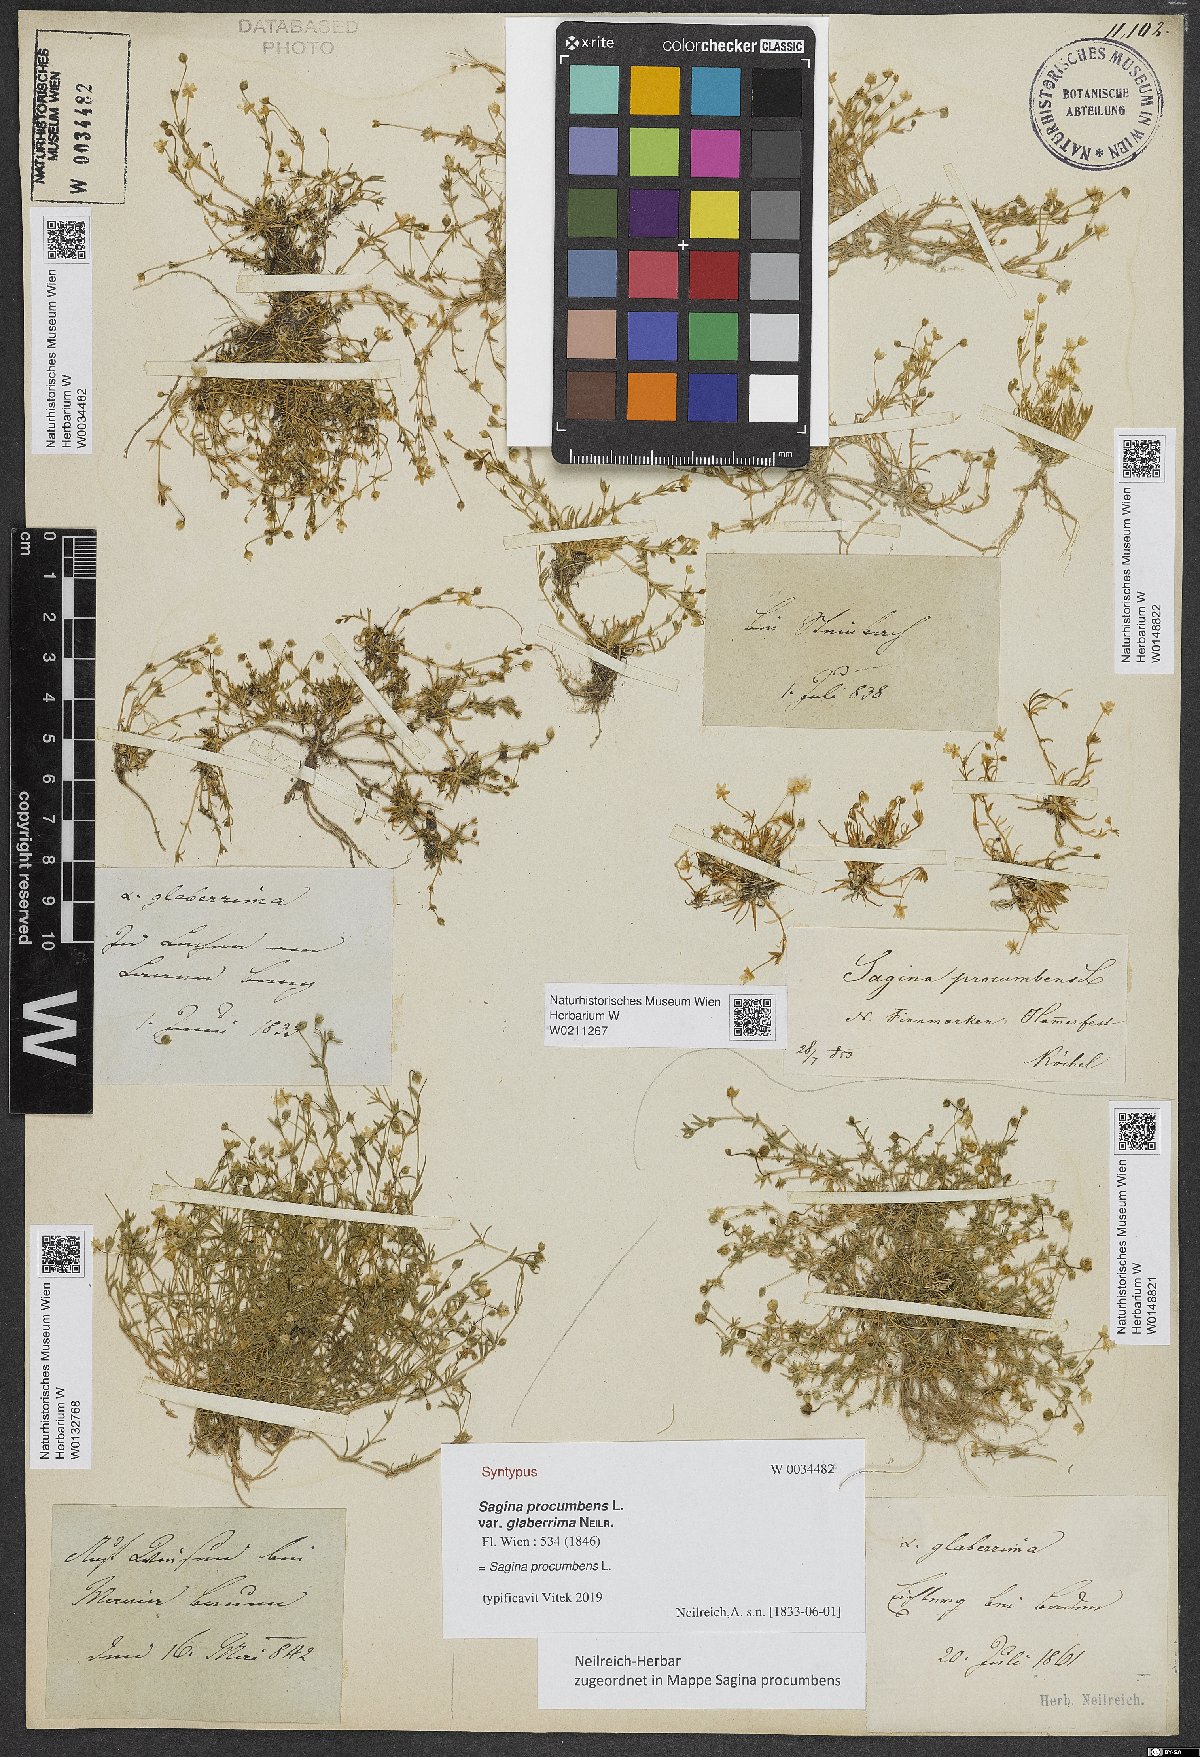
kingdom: Plantae
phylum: Tracheophyta
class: Magnoliopsida
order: Caryophyllales
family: Caryophyllaceae
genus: Sagina
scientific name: Sagina procumbens
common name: Procumbent pearlwort
